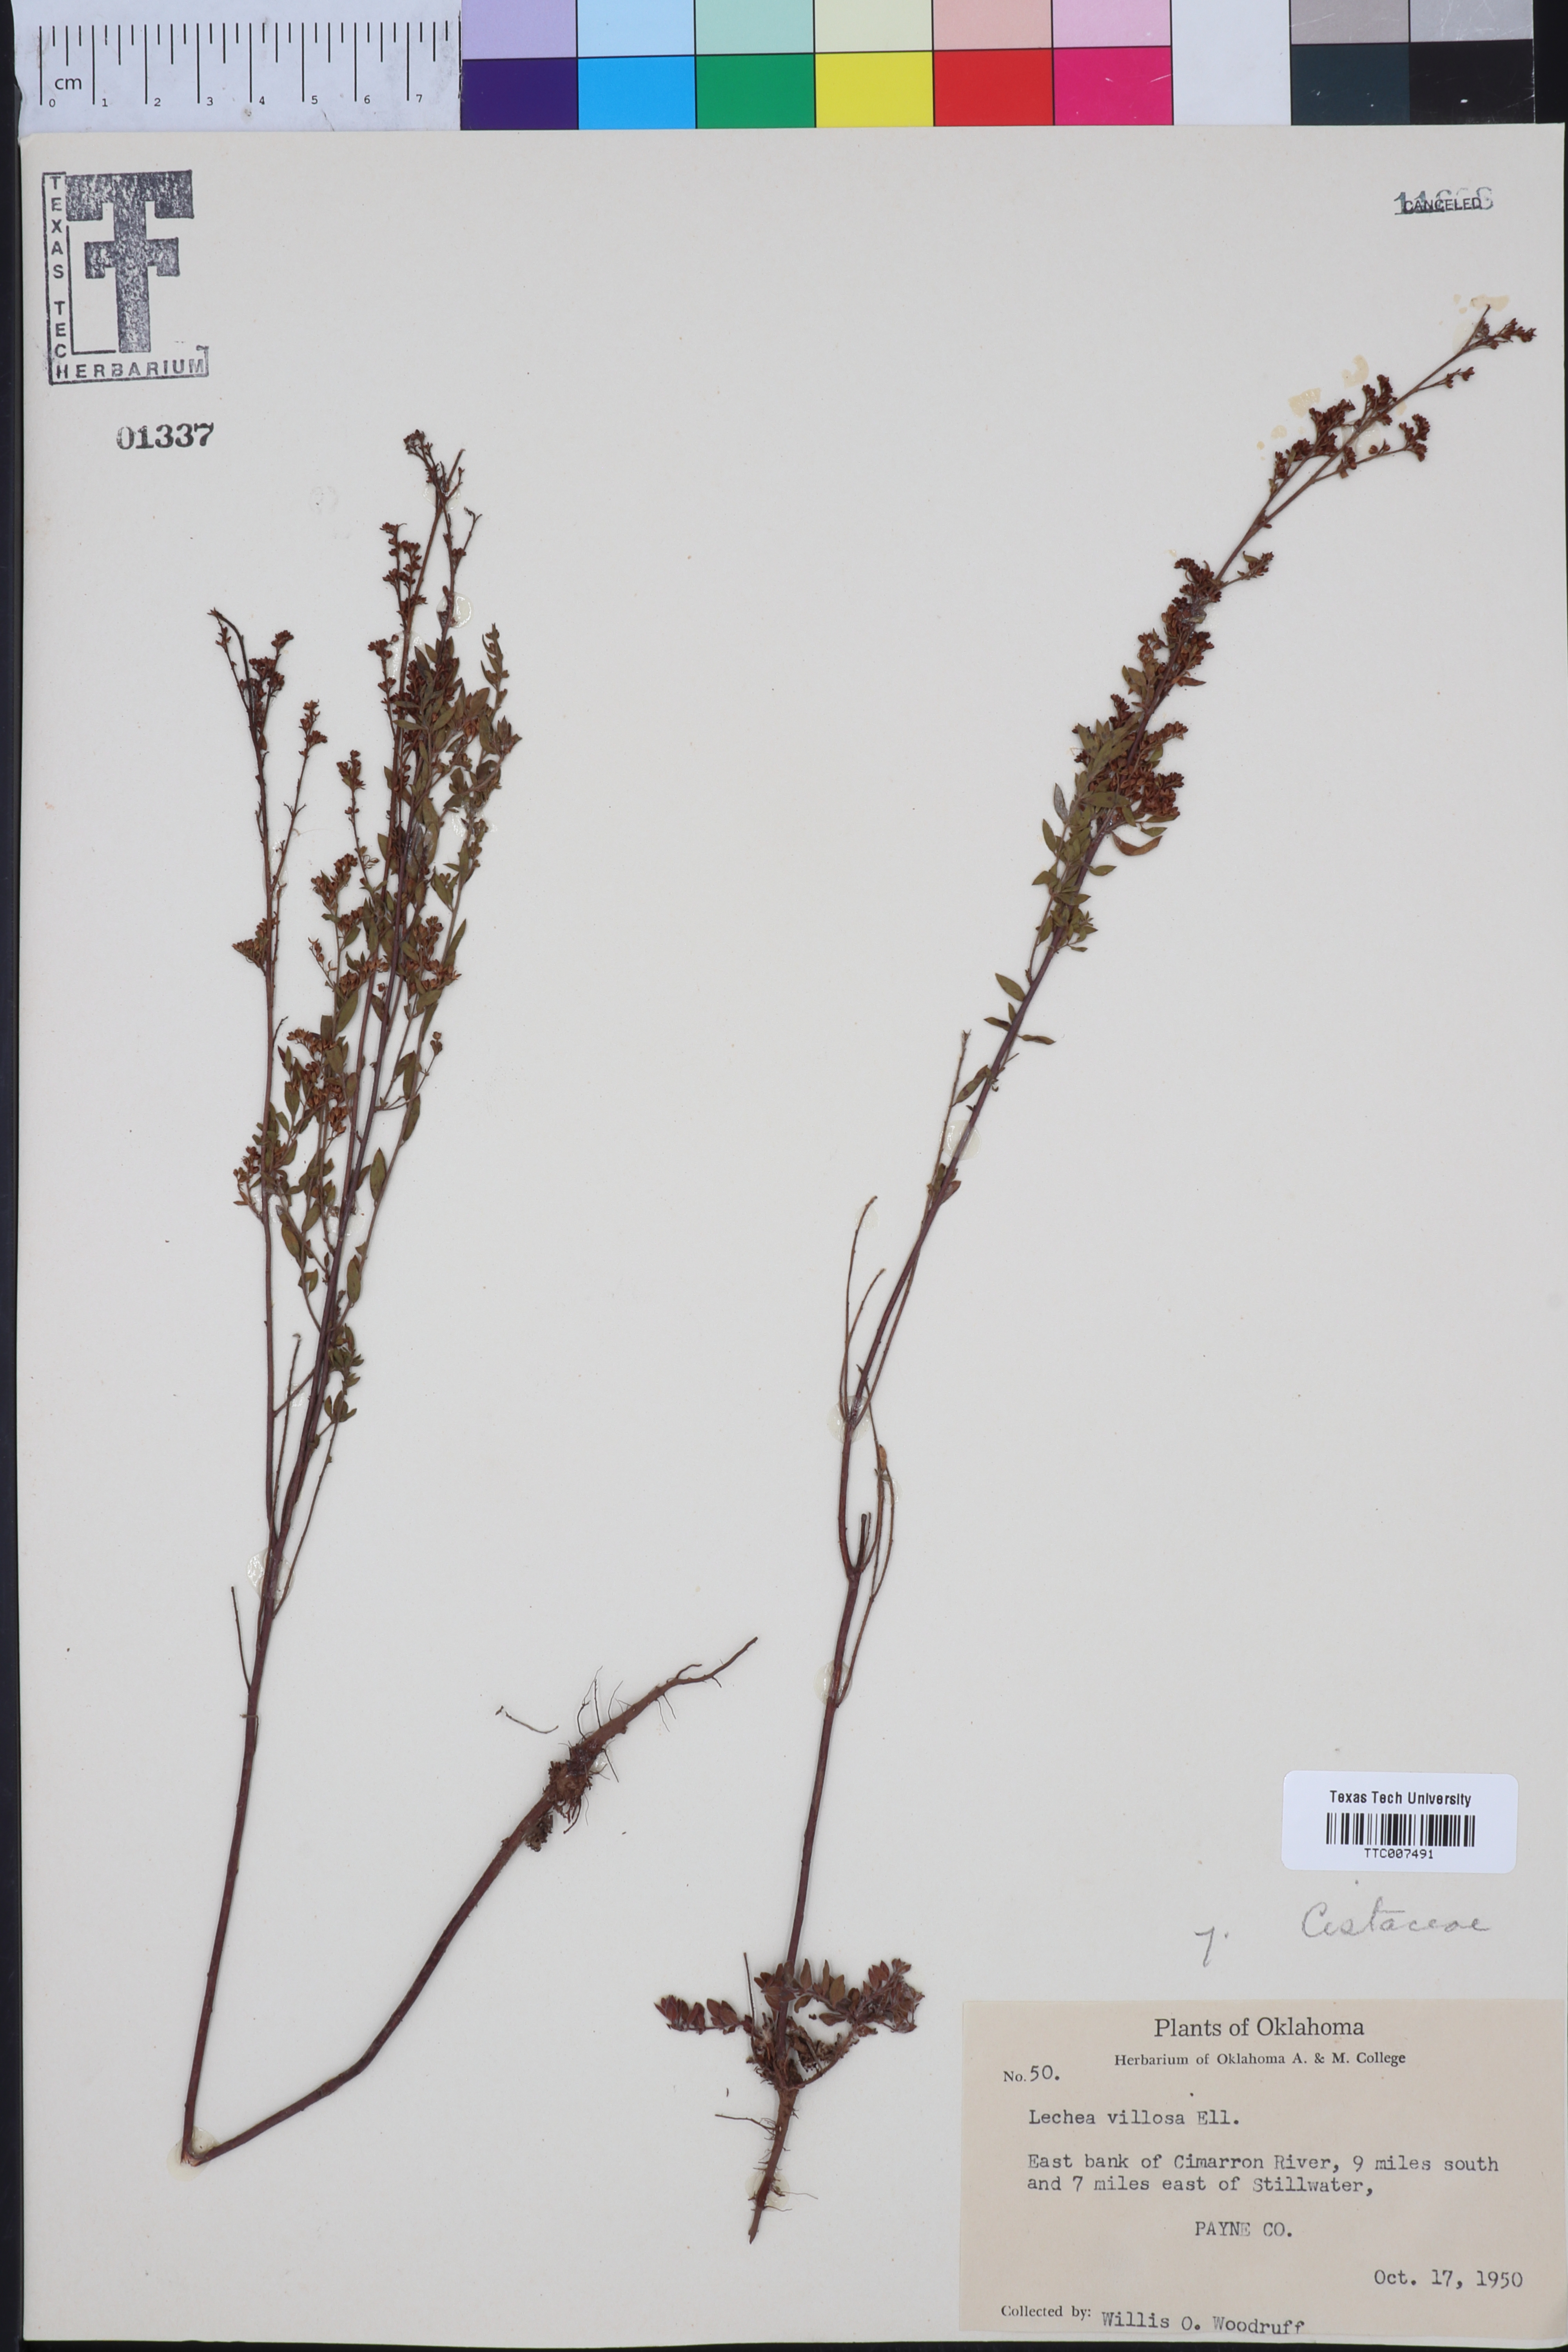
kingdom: Plantae
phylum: Tracheophyta
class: Magnoliopsida
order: Malvales
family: Cistaceae
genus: Lechea
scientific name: Lechea mucronata
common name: Hairy pinweed
